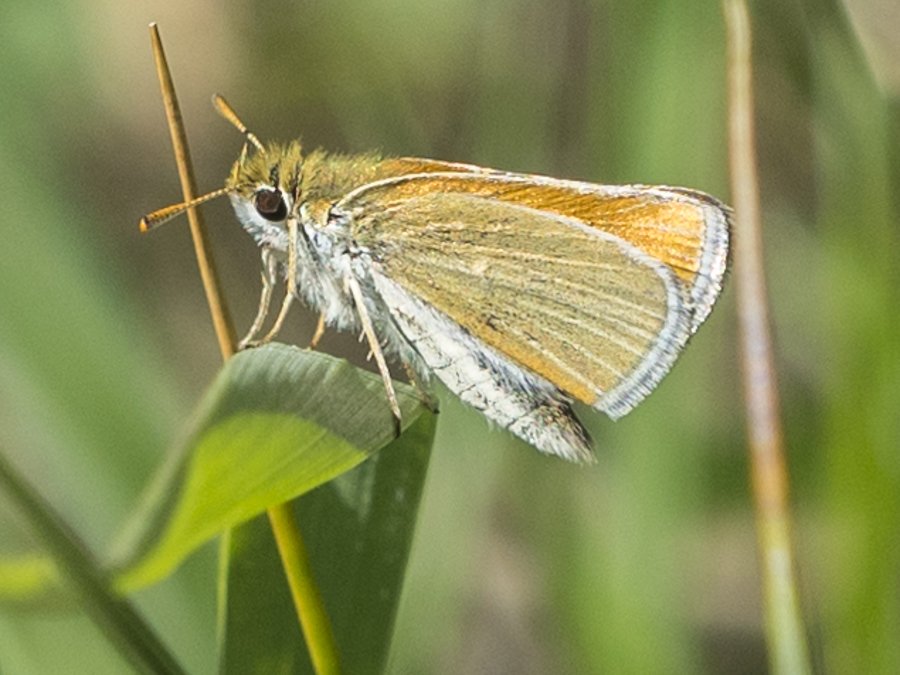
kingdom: Animalia
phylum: Arthropoda
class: Insecta
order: Lepidoptera
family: Hesperiidae
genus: Oarisma
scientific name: Oarisma garita
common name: Garita Skipperling
